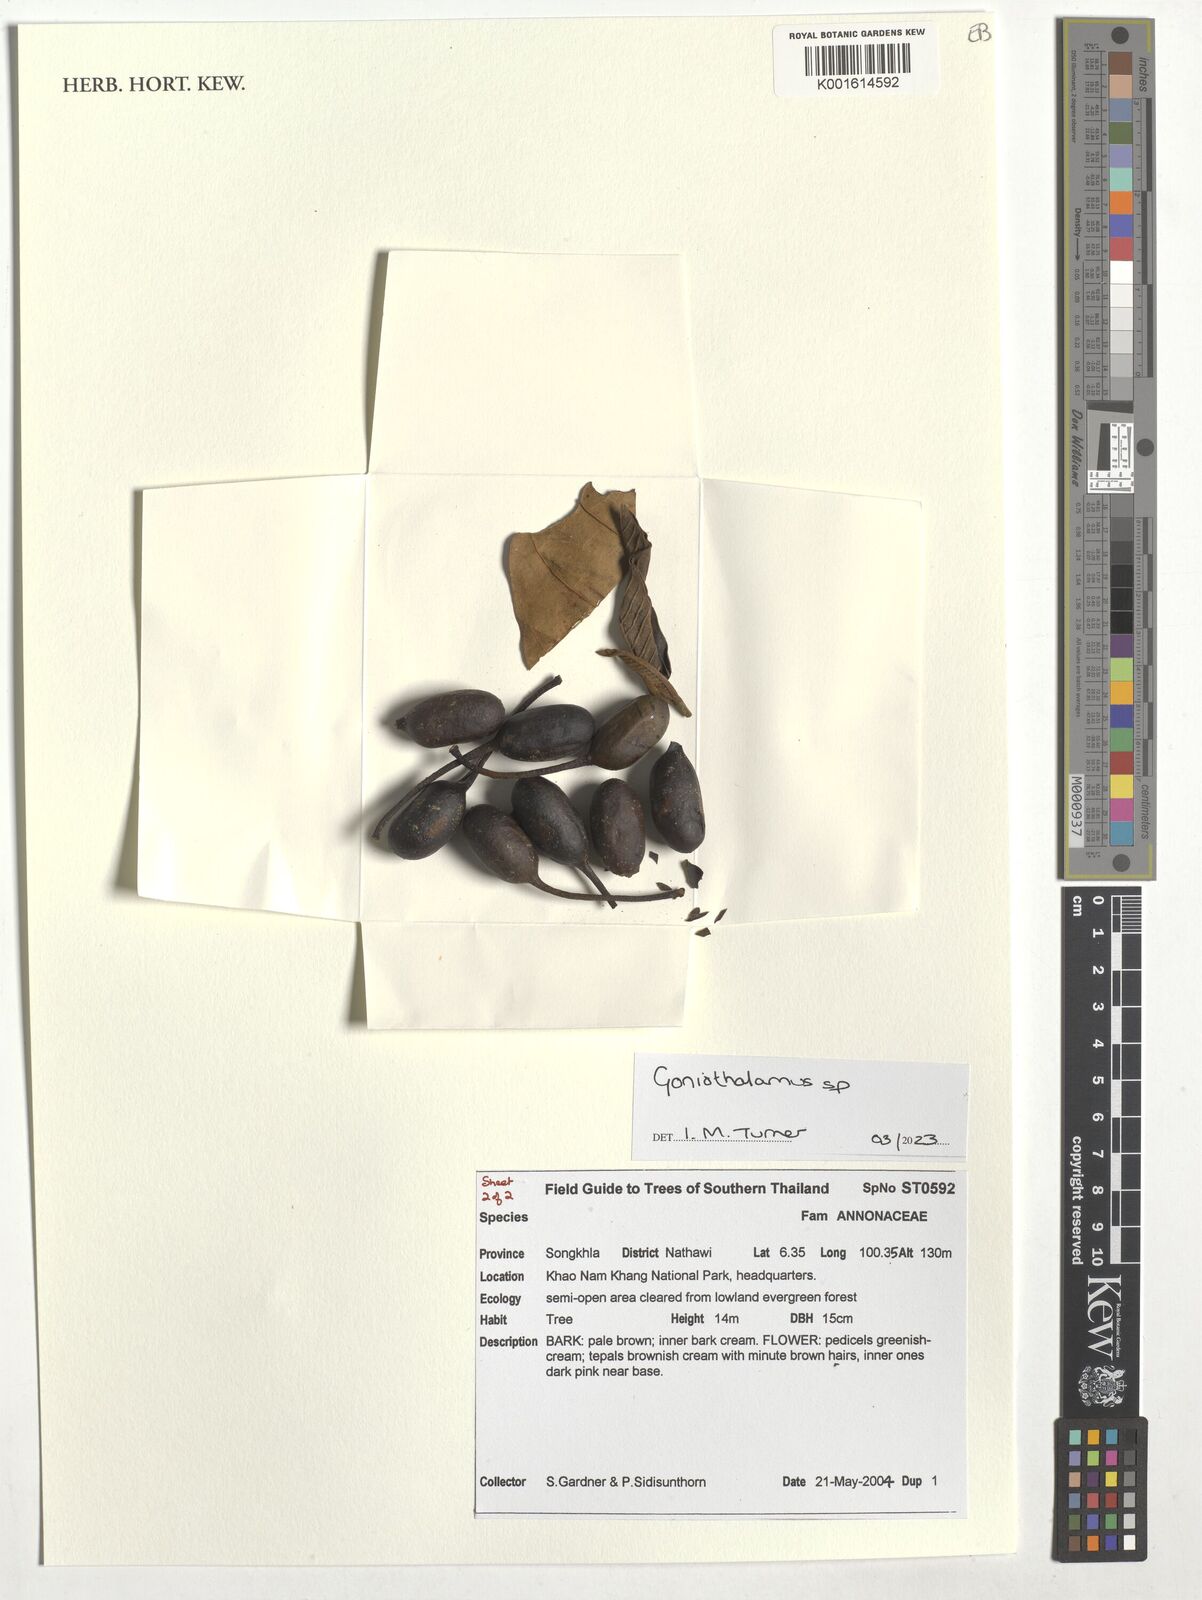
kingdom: Plantae
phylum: Tracheophyta
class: Magnoliopsida
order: Magnoliales
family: Annonaceae
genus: Goniothalamus
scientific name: Goniothalamus
